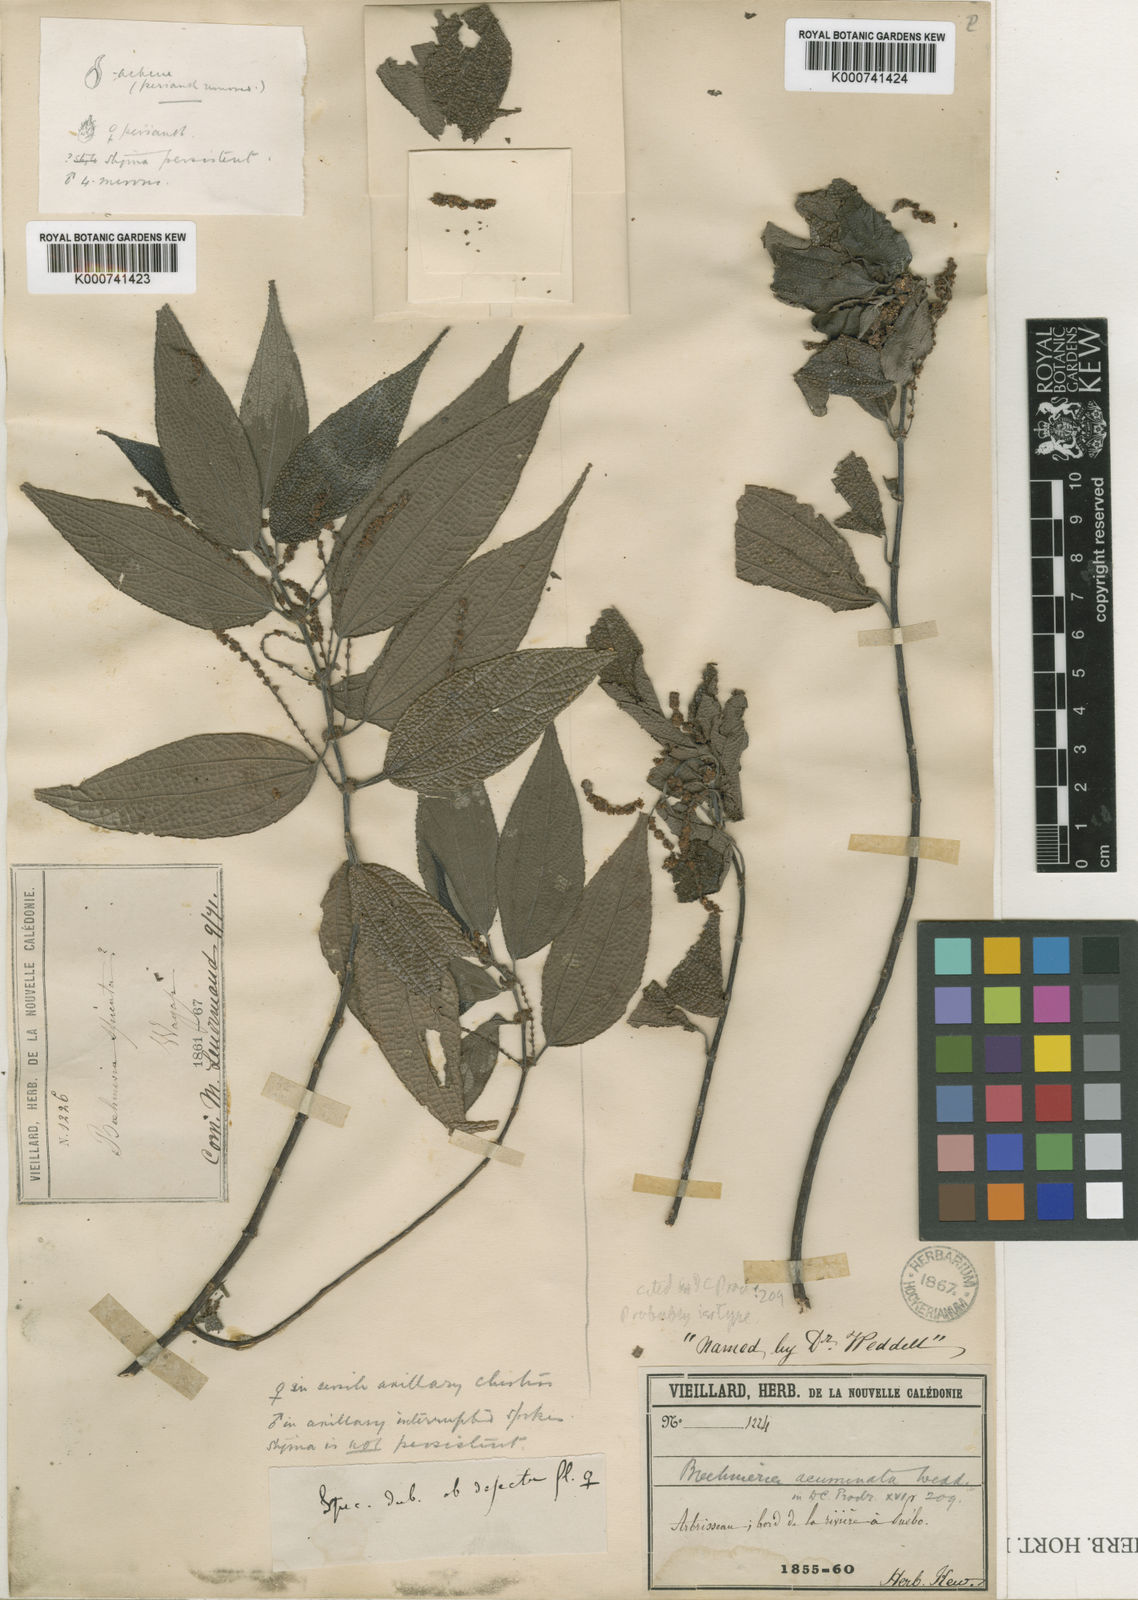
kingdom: Plantae
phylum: Tracheophyta
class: Magnoliopsida
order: Rosales
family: Urticaceae
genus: Cypholophus
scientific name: Cypholophus
